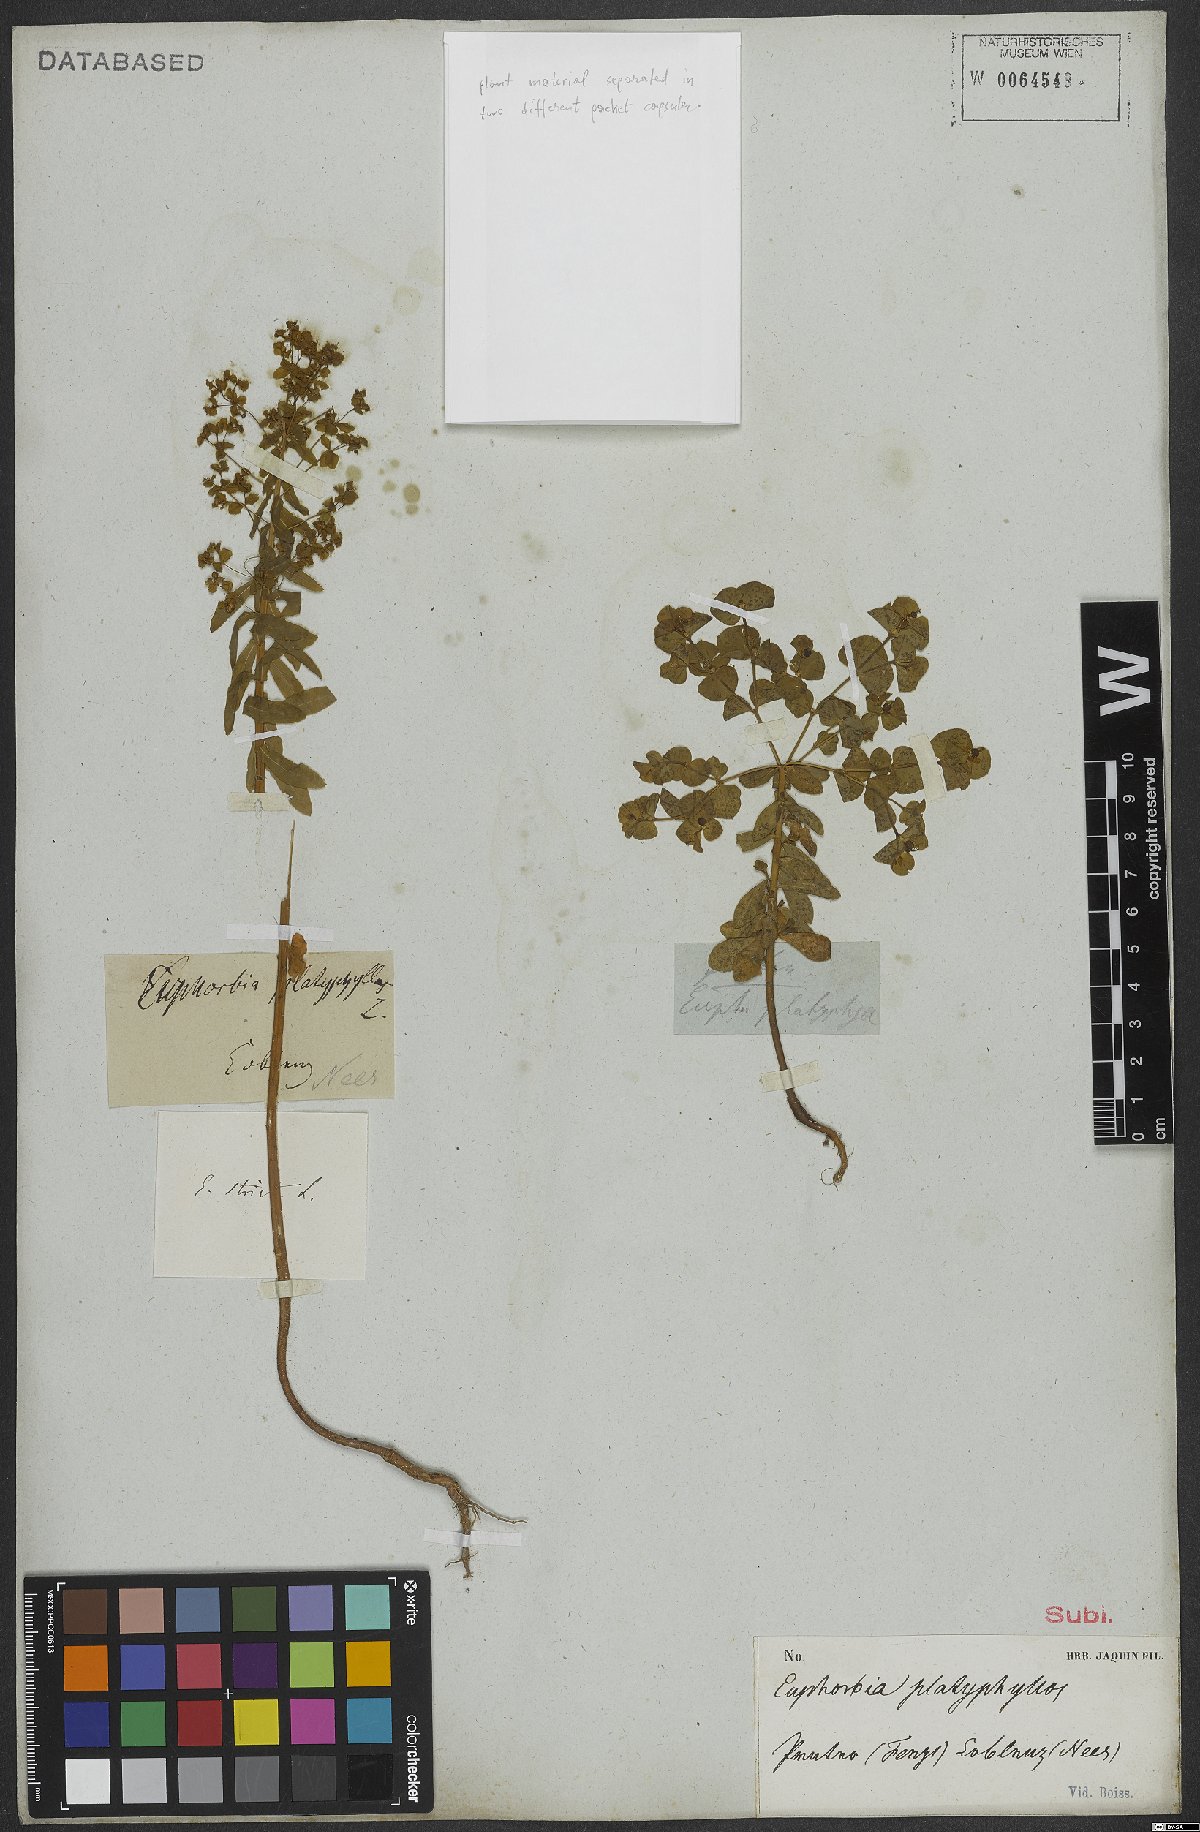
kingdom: Plantae
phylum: Tracheophyta
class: Magnoliopsida
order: Malpighiales
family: Euphorbiaceae
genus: Euphorbia
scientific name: Euphorbia platyphyllos
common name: Broad-leaved spurge
